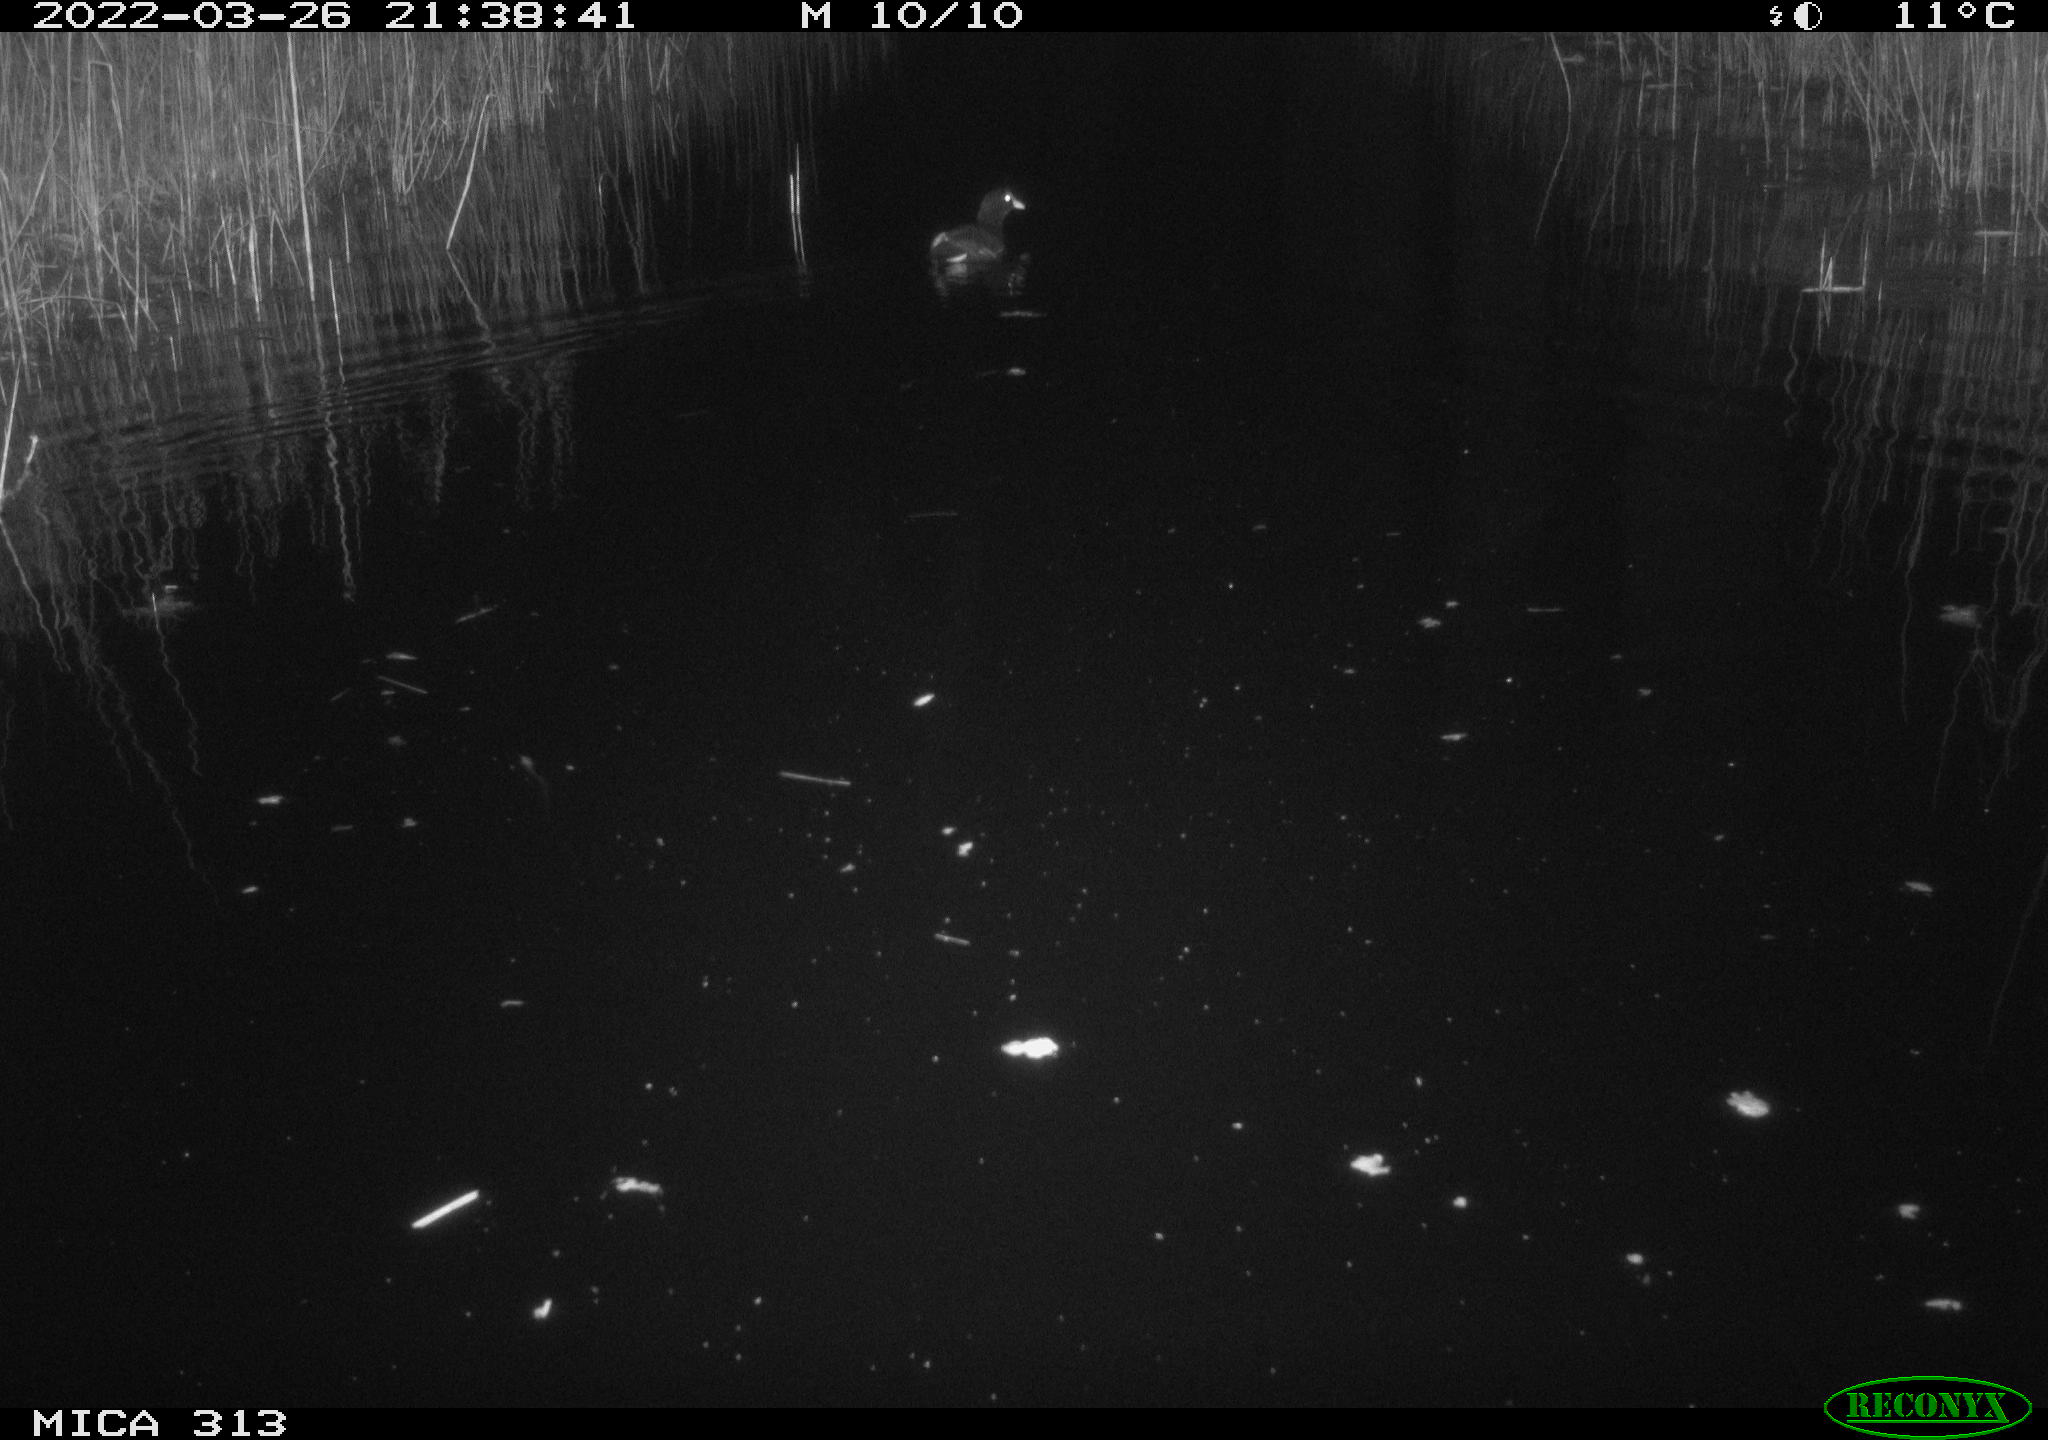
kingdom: Animalia
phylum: Chordata
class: Aves
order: Gruiformes
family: Rallidae
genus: Gallinula
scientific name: Gallinula chloropus
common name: Common moorhen
